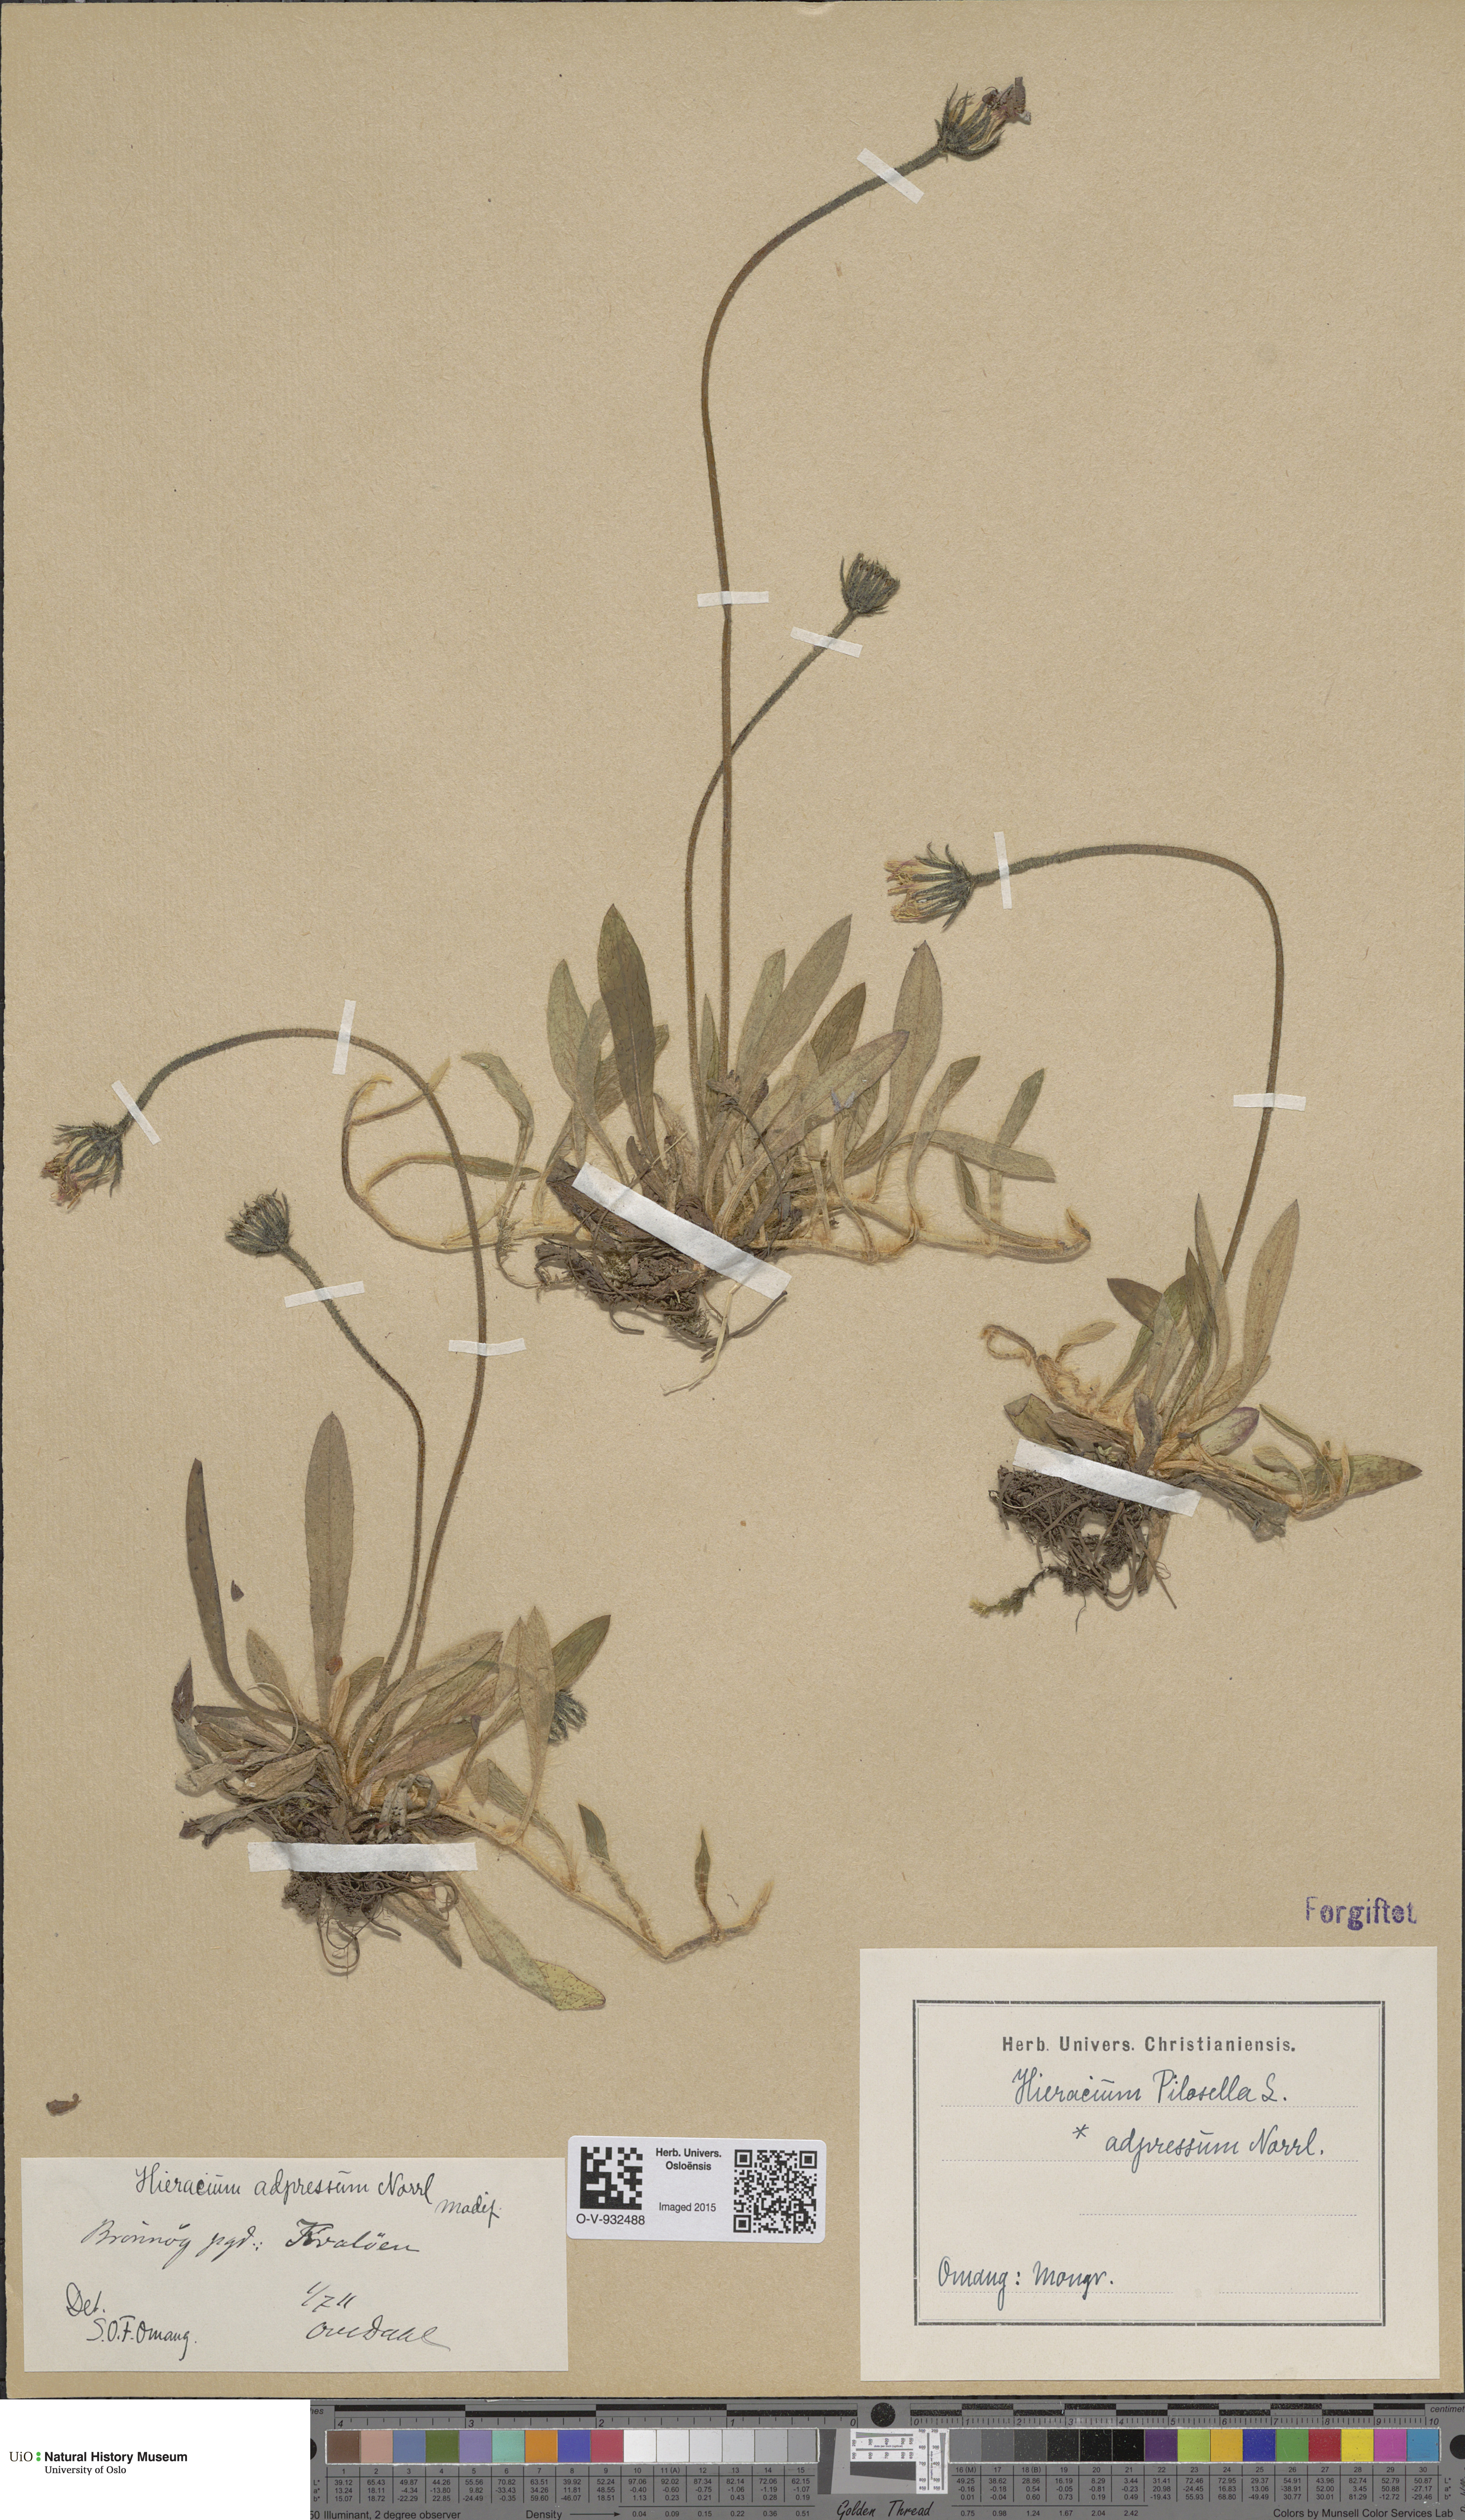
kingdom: Plantae
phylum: Tracheophyta
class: Magnoliopsida
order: Asterales
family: Asteraceae
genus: Hieracium
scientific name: Hieracium adpressum
